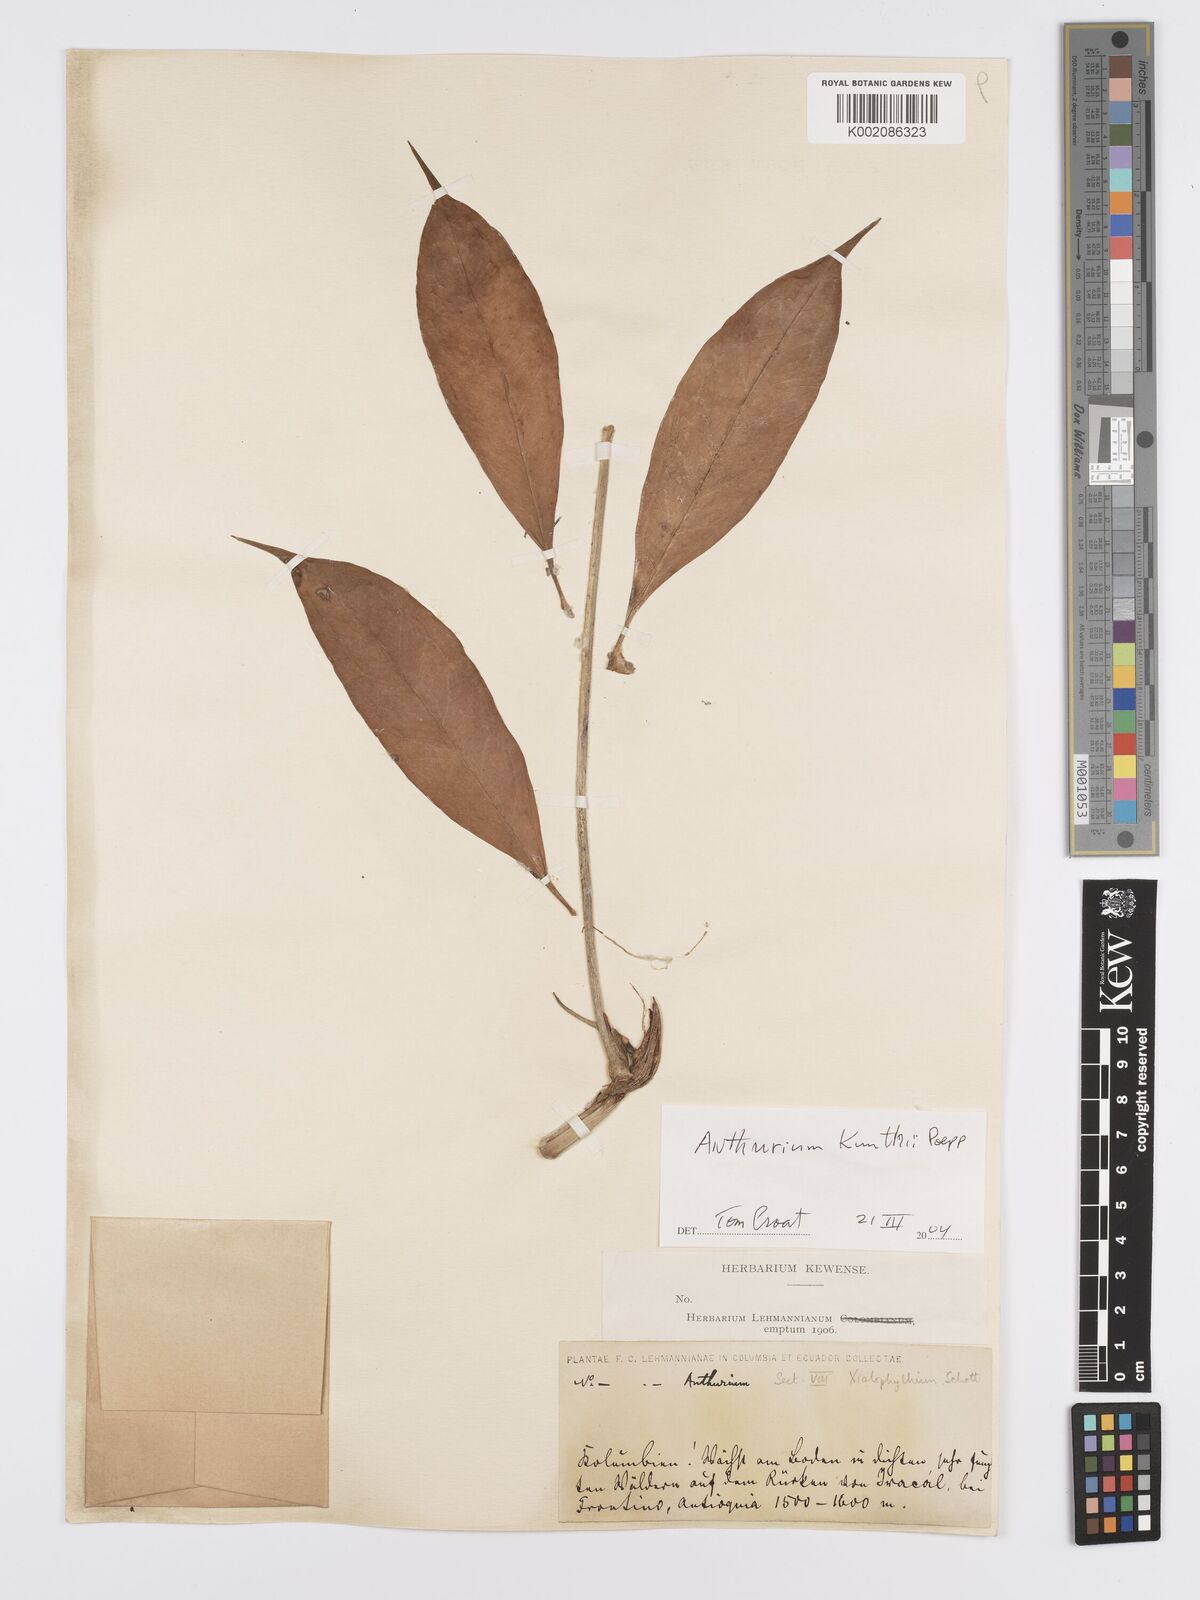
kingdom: Plantae
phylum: Tracheophyta
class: Liliopsida
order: Alismatales
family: Araceae
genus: Anthurium
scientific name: Anthurium kunthii
